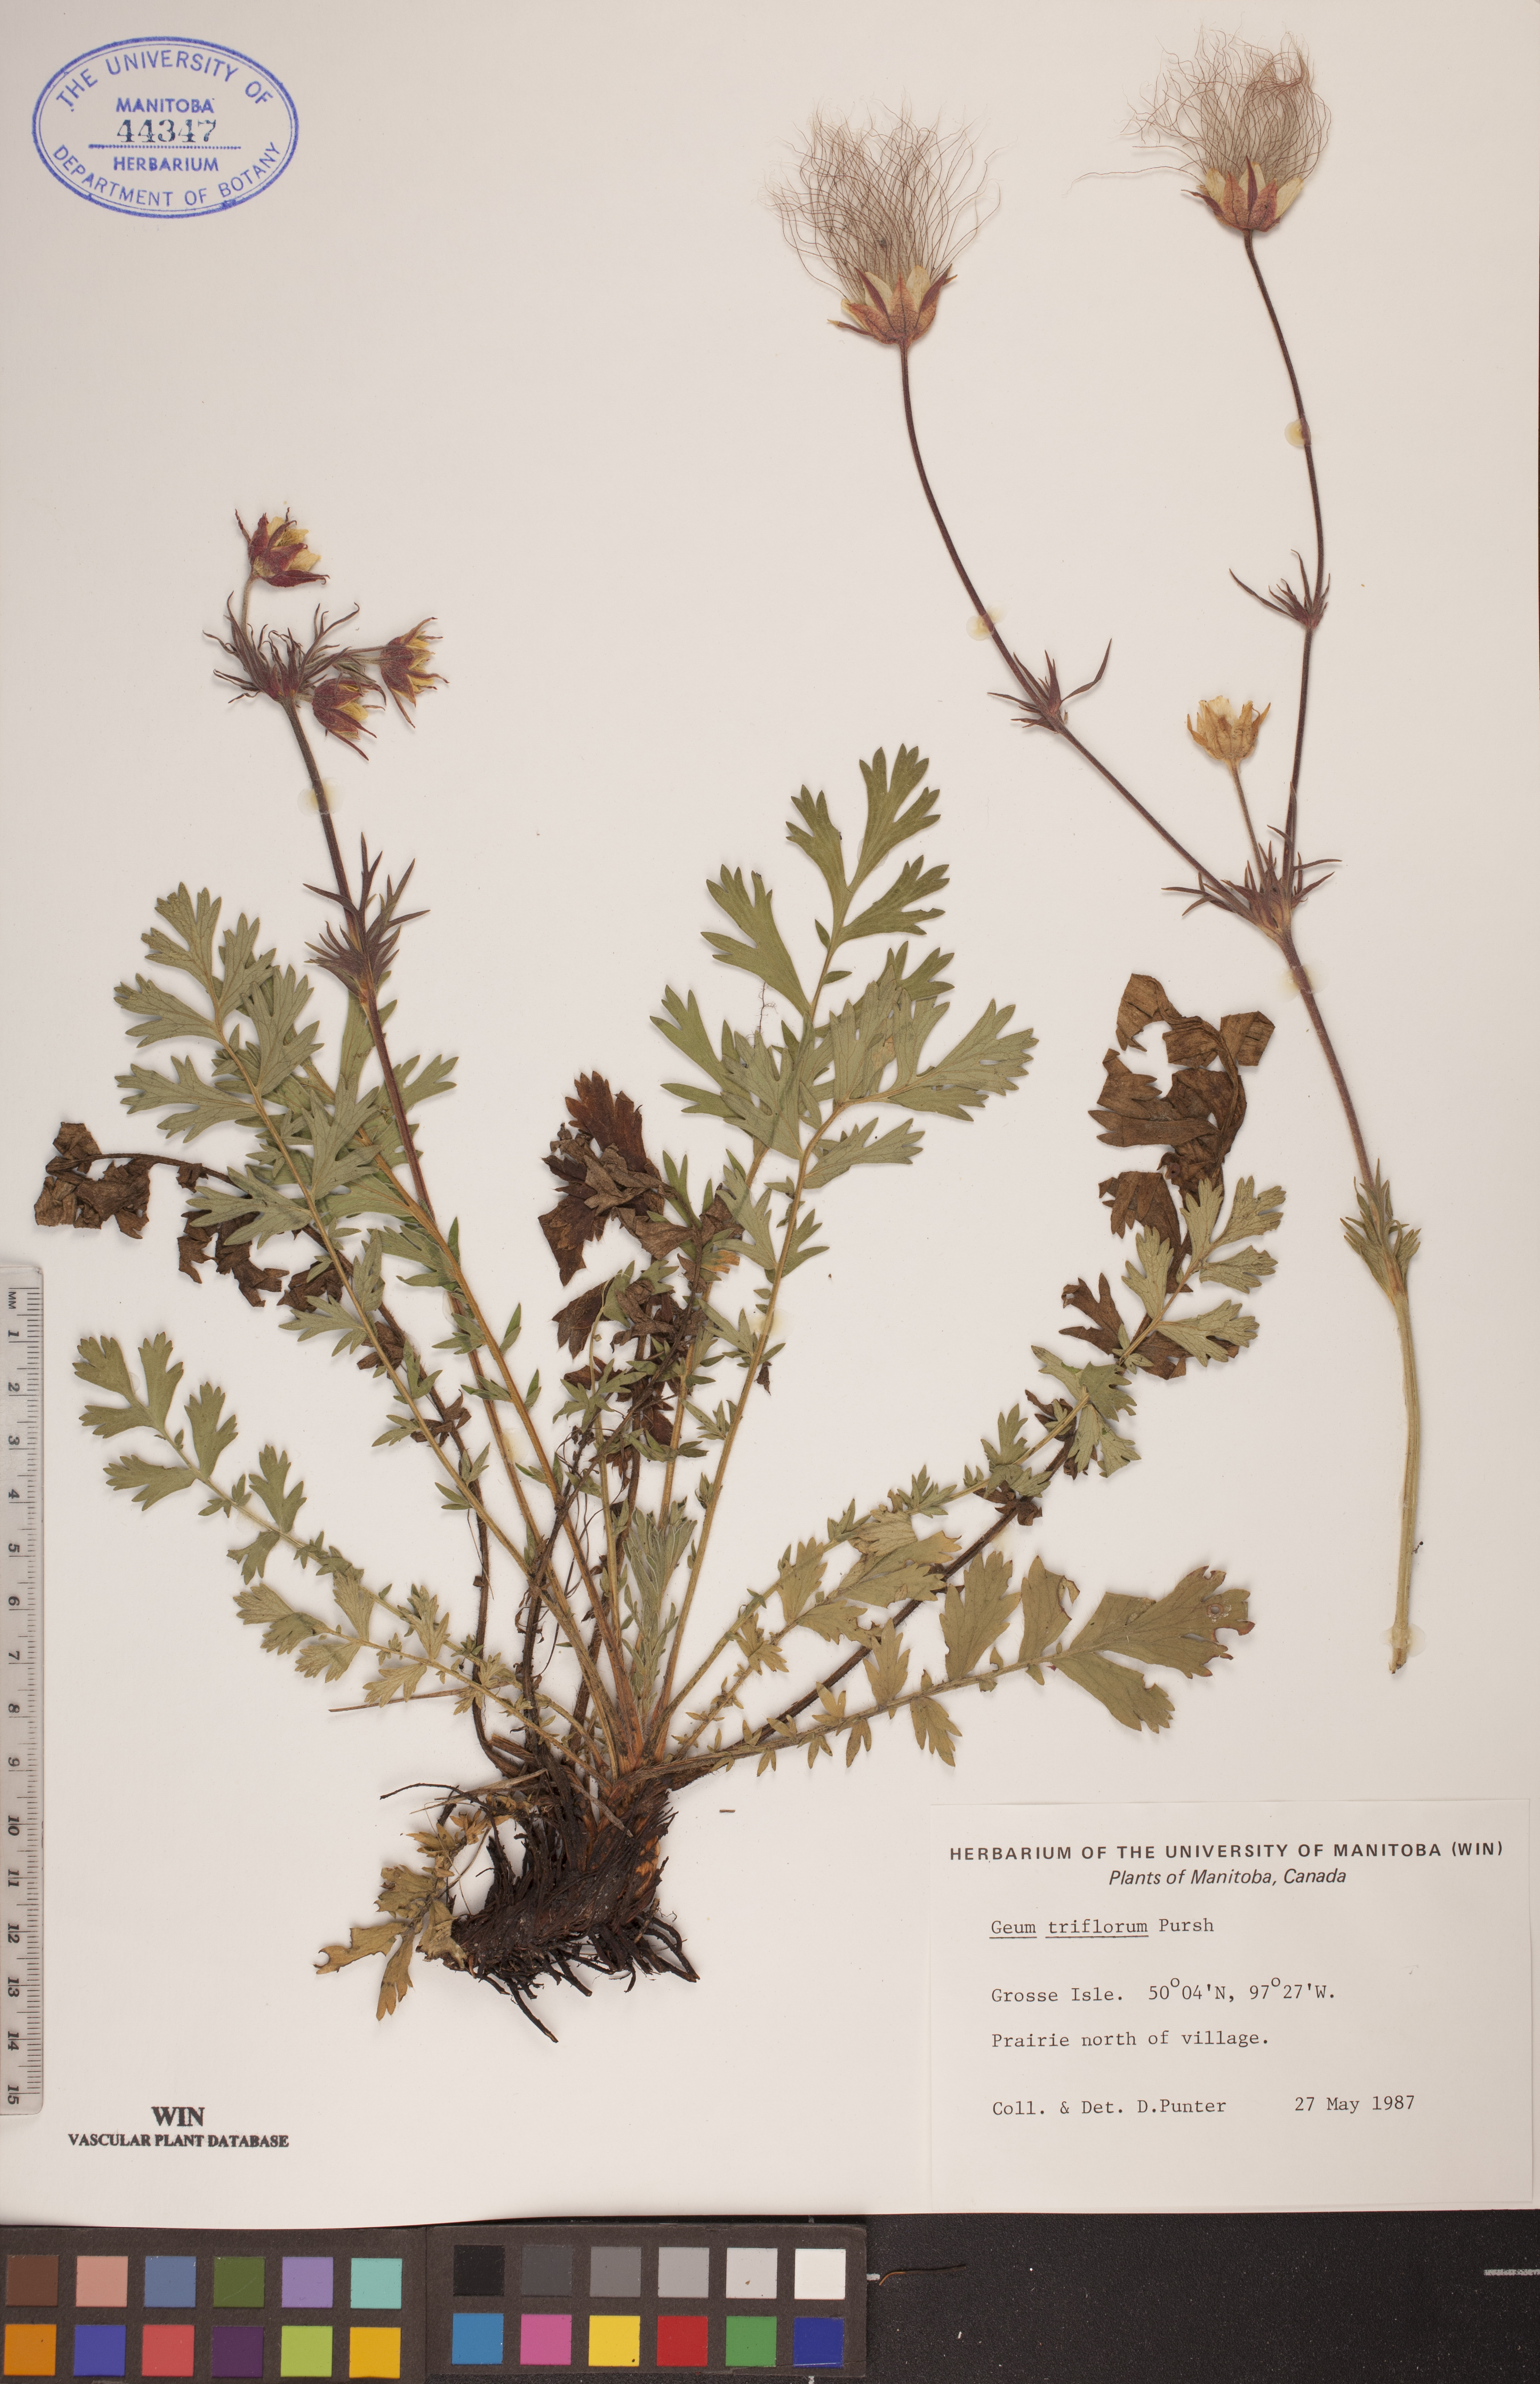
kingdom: Plantae
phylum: Tracheophyta
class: Magnoliopsida
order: Rosales
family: Rosaceae
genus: Geum
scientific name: Geum triflorum
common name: Old man's whiskers
